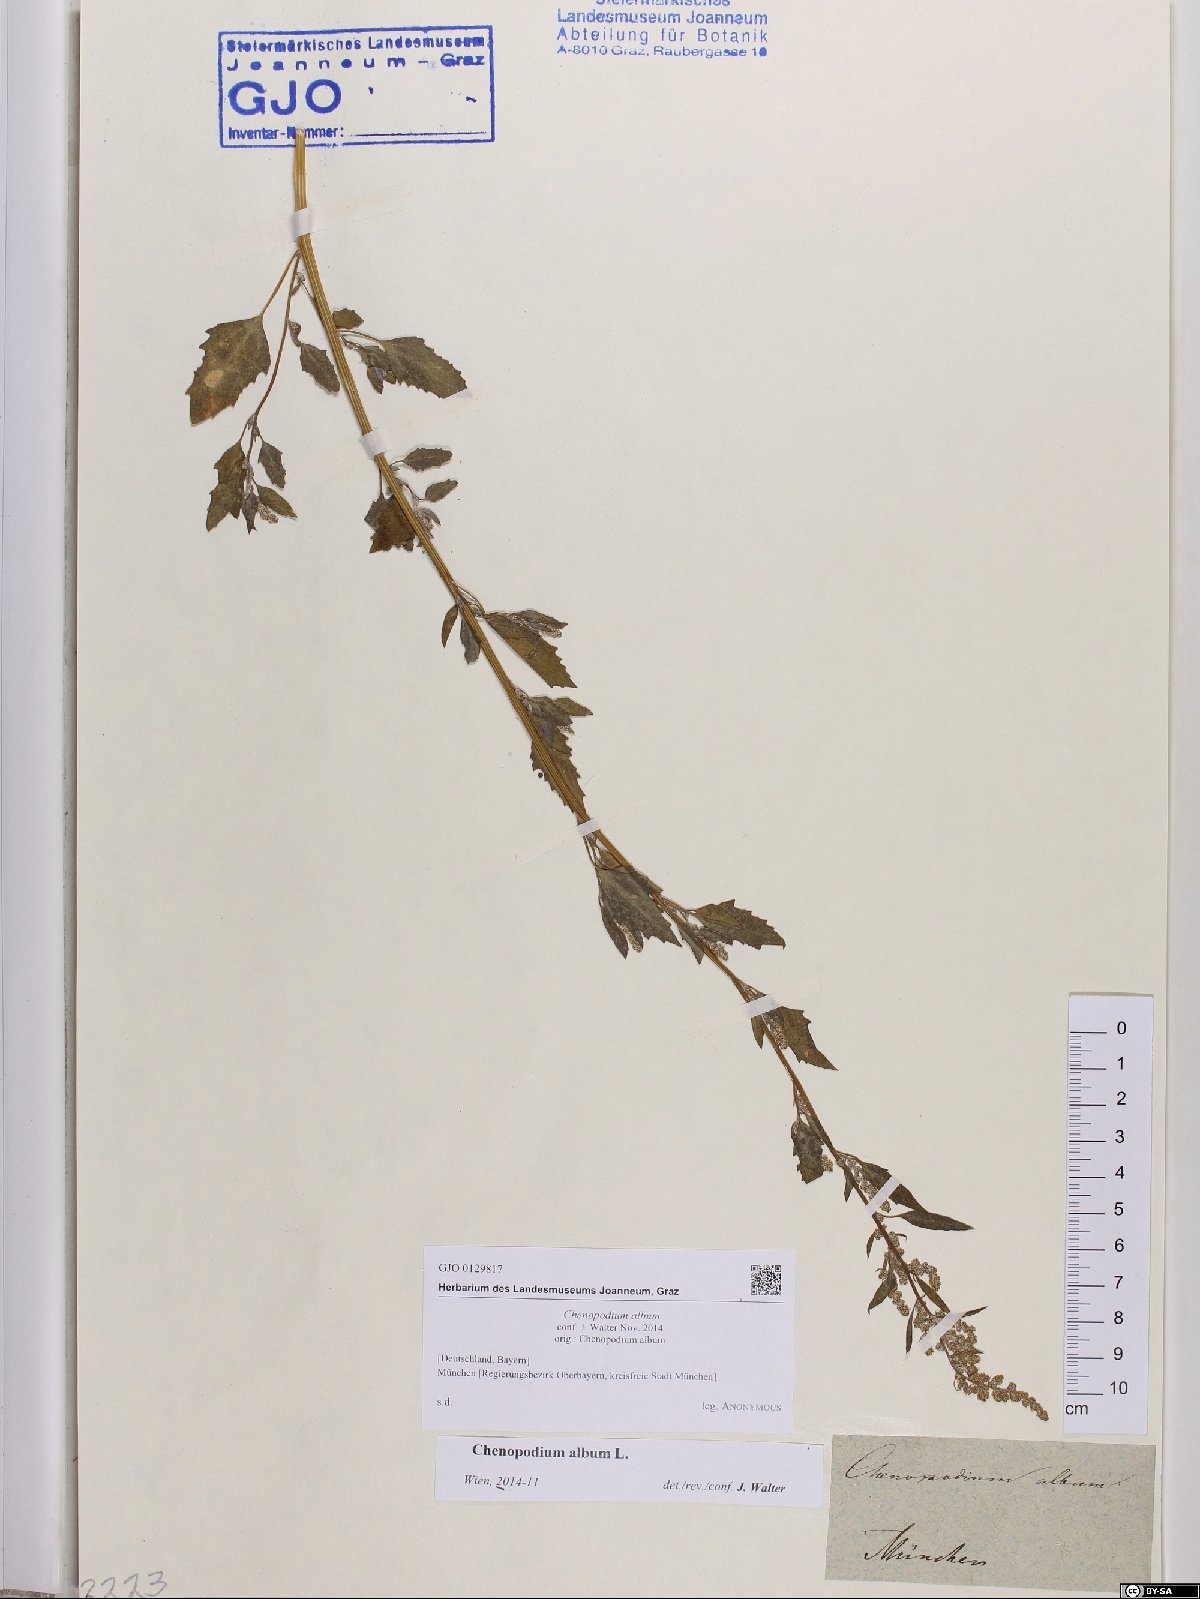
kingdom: Plantae
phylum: Tracheophyta
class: Magnoliopsida
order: Caryophyllales
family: Amaranthaceae
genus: Chenopodium
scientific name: Chenopodium album
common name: Fat-hen
